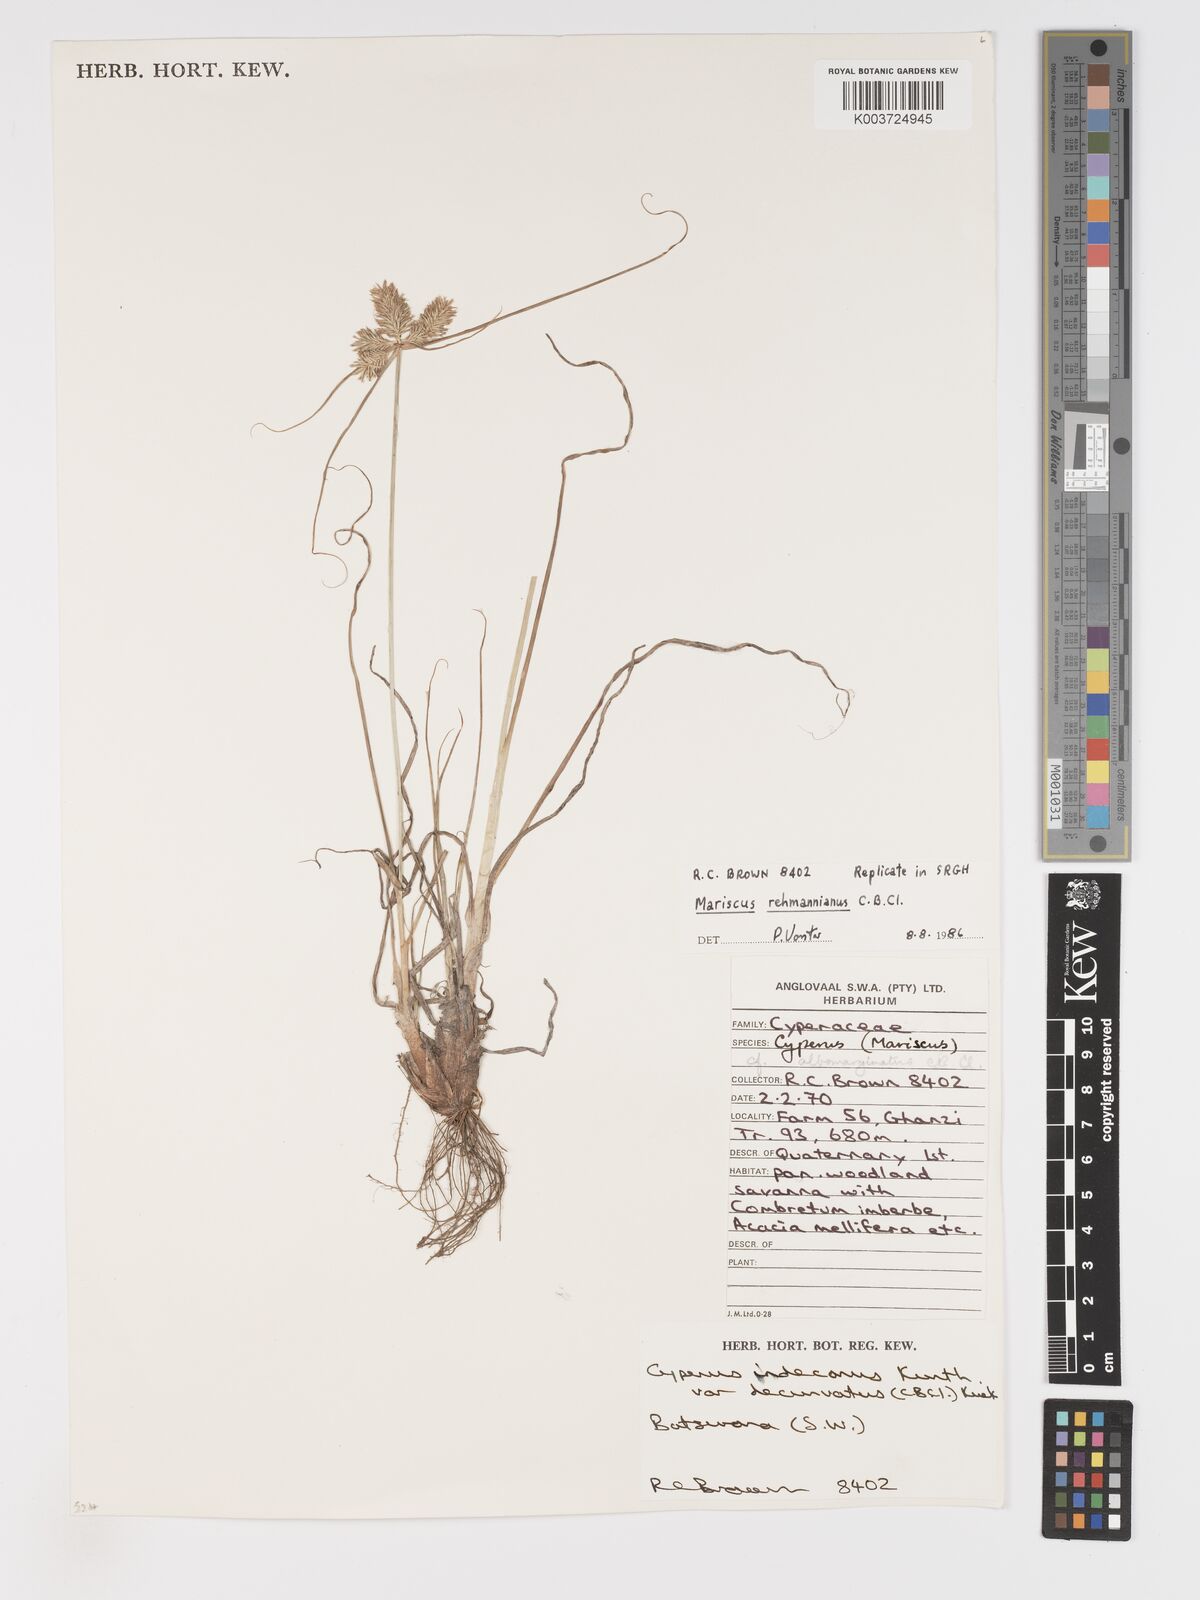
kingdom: Plantae
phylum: Tracheophyta
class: Liliopsida
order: Poales
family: Cyperaceae
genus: Cyperus
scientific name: Cyperus indecorus
